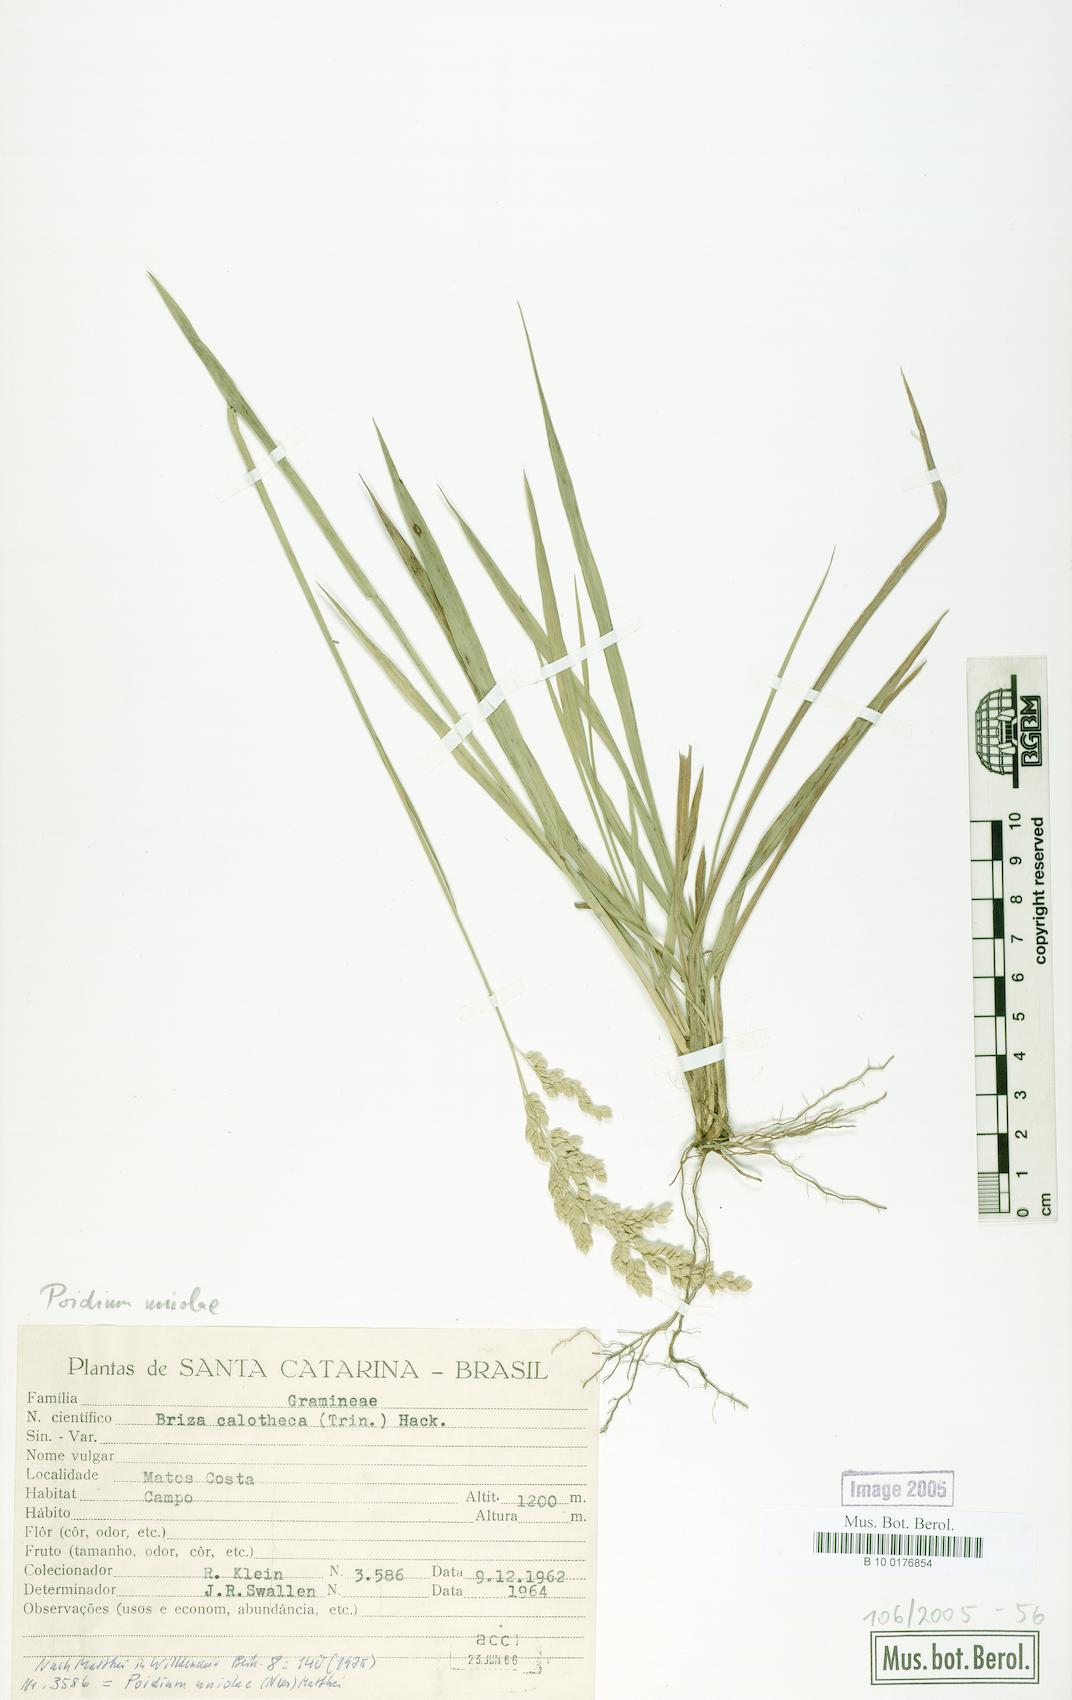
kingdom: Plantae
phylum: Tracheophyta
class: Liliopsida
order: Poales
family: Poaceae
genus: Poidium
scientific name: Poidium uniolae
